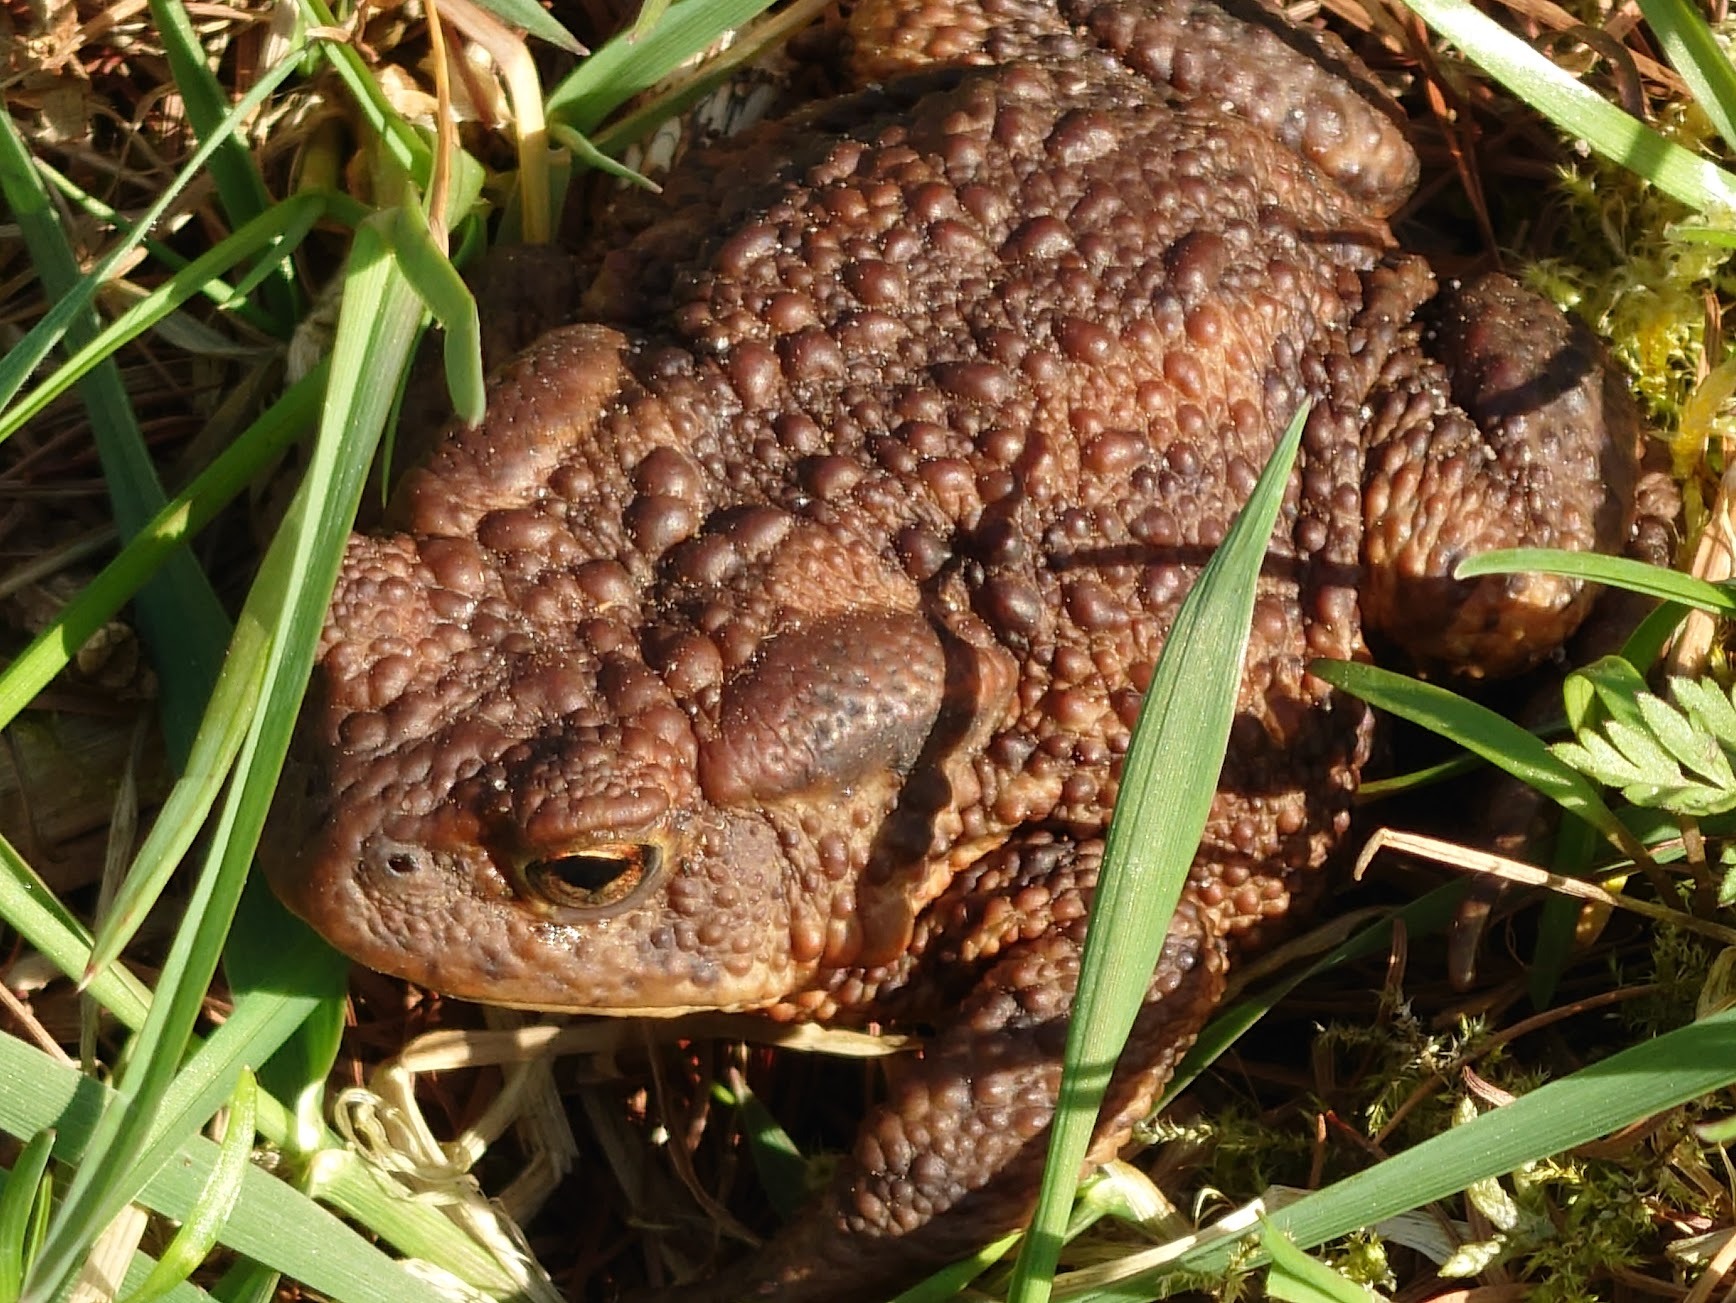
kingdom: Animalia
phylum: Chordata
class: Amphibia
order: Anura
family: Bufonidae
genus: Bufo
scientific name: Bufo bufo
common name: Skrubtudse
